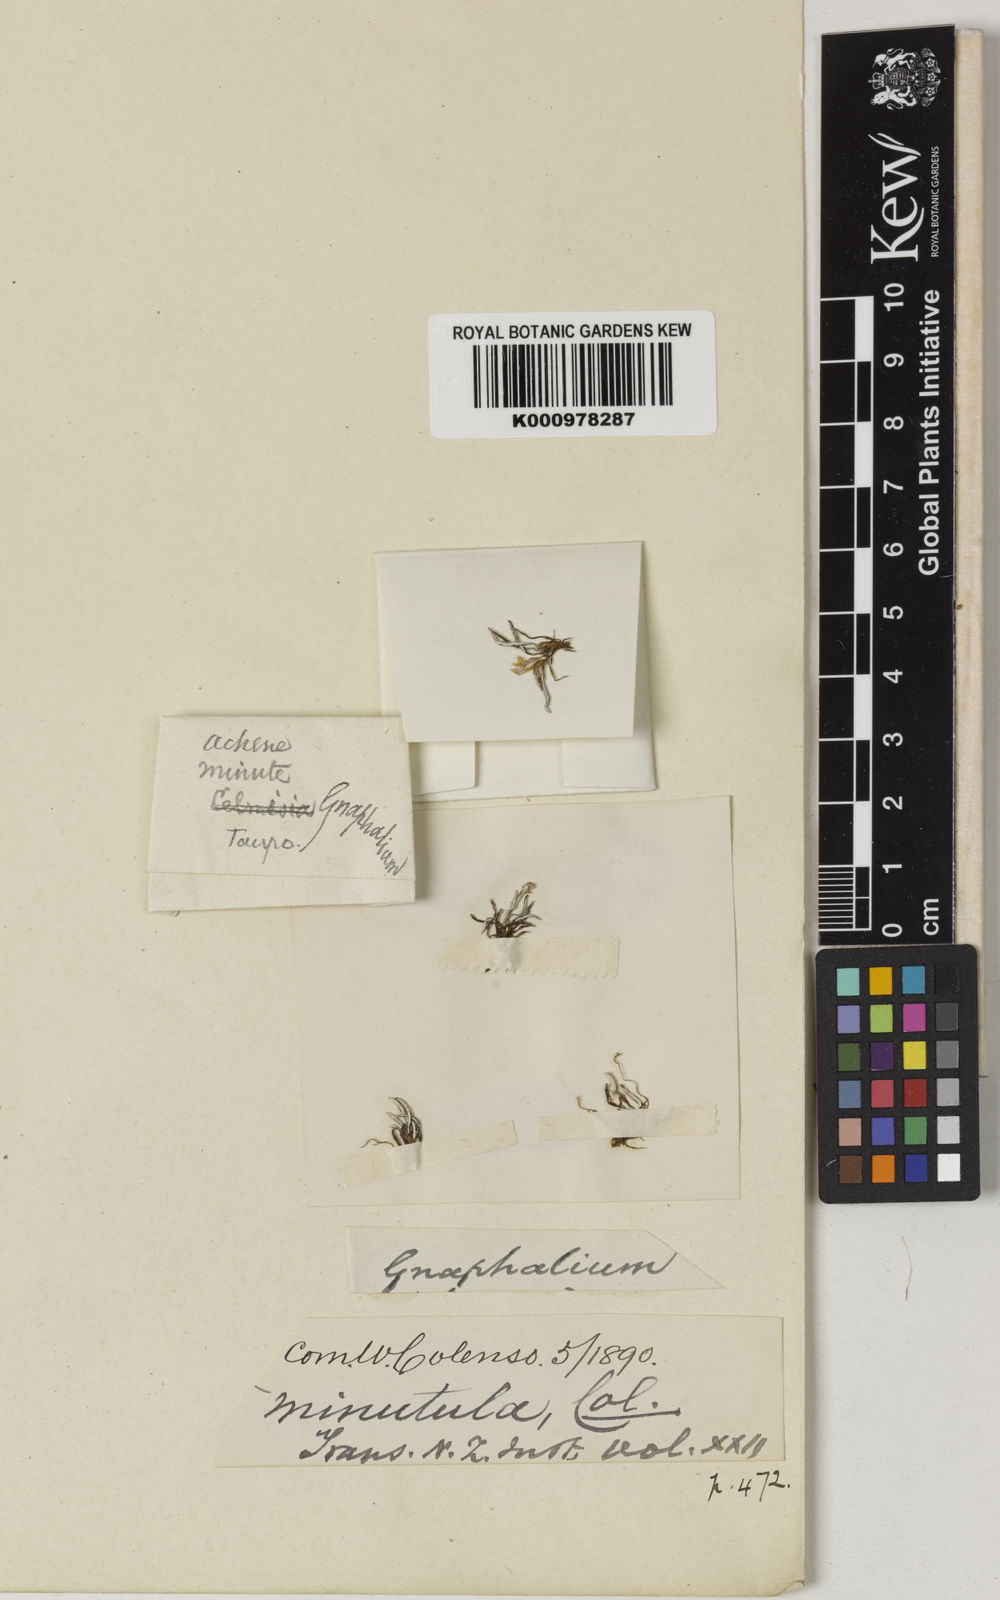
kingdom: Plantae
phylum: Tracheophyta
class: Magnoliopsida
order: Asterales
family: Asteraceae
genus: Euchiton
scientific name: Euchiton paludosus
